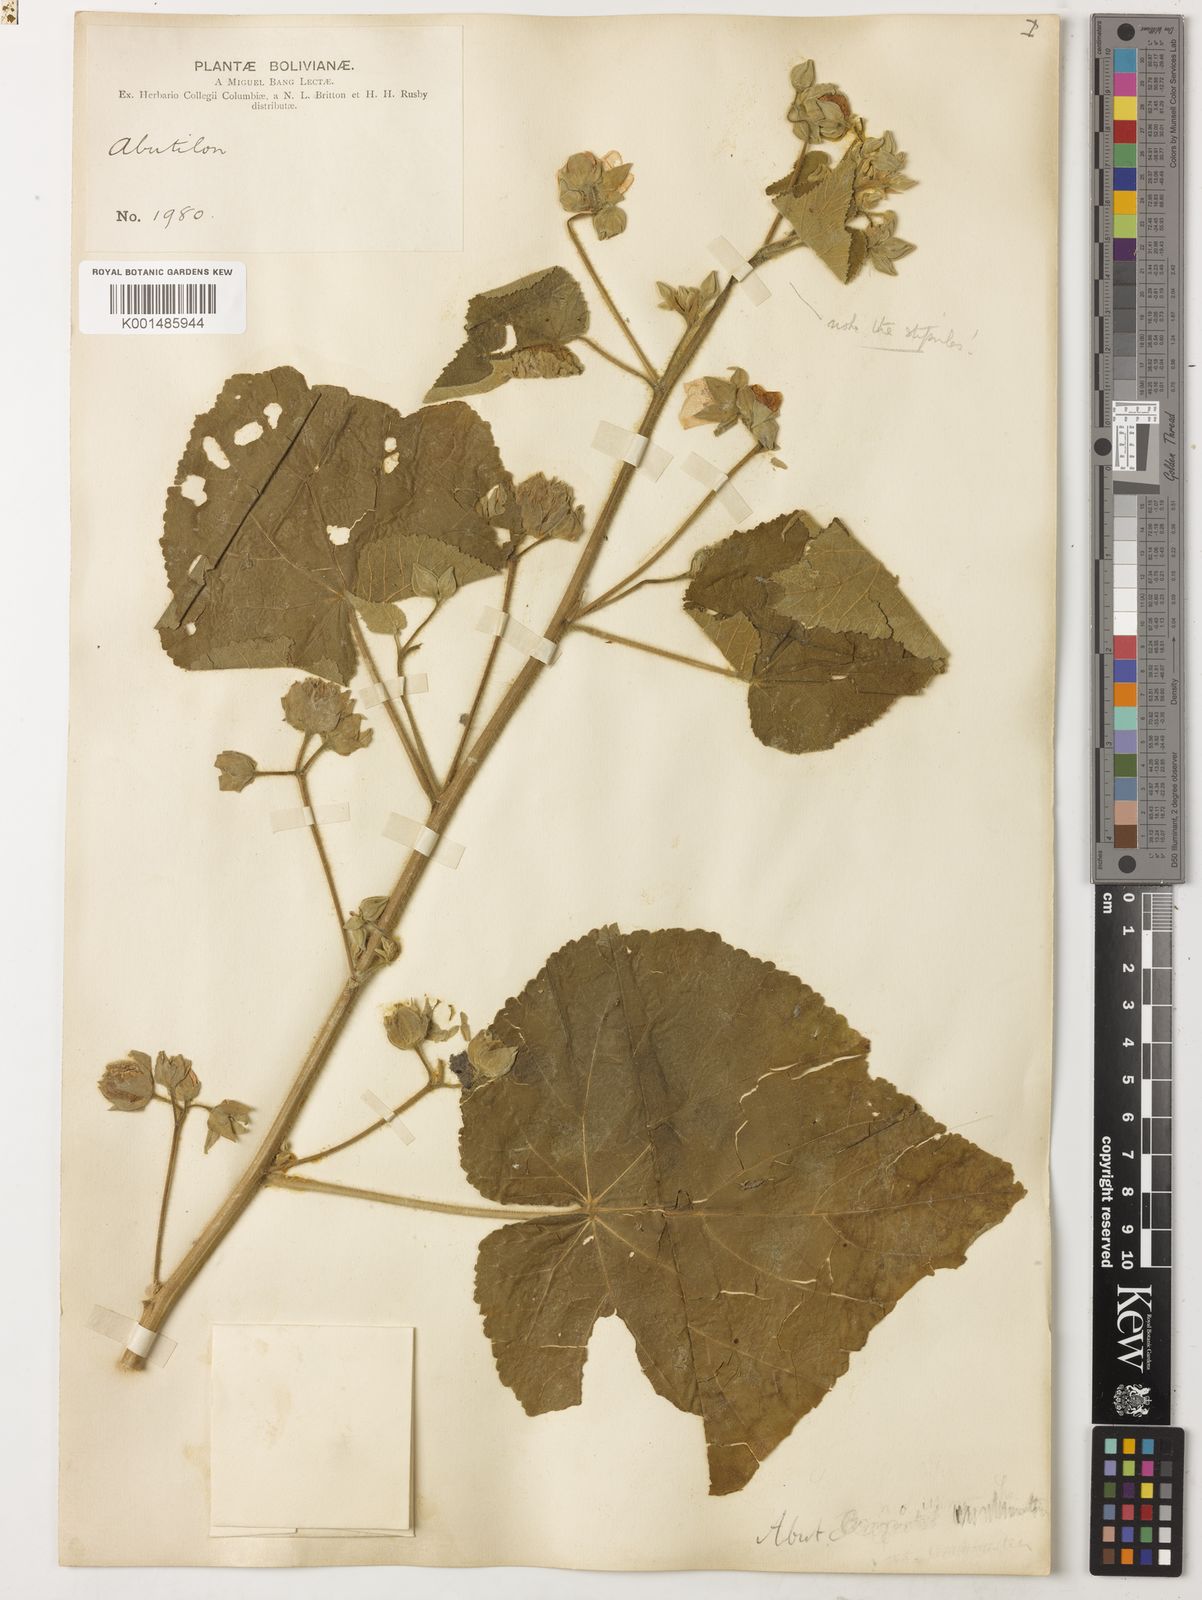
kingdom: Plantae
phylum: Tracheophyta
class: Magnoliopsida
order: Malvales
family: Malvaceae
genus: Abutilon
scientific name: Abutilon
